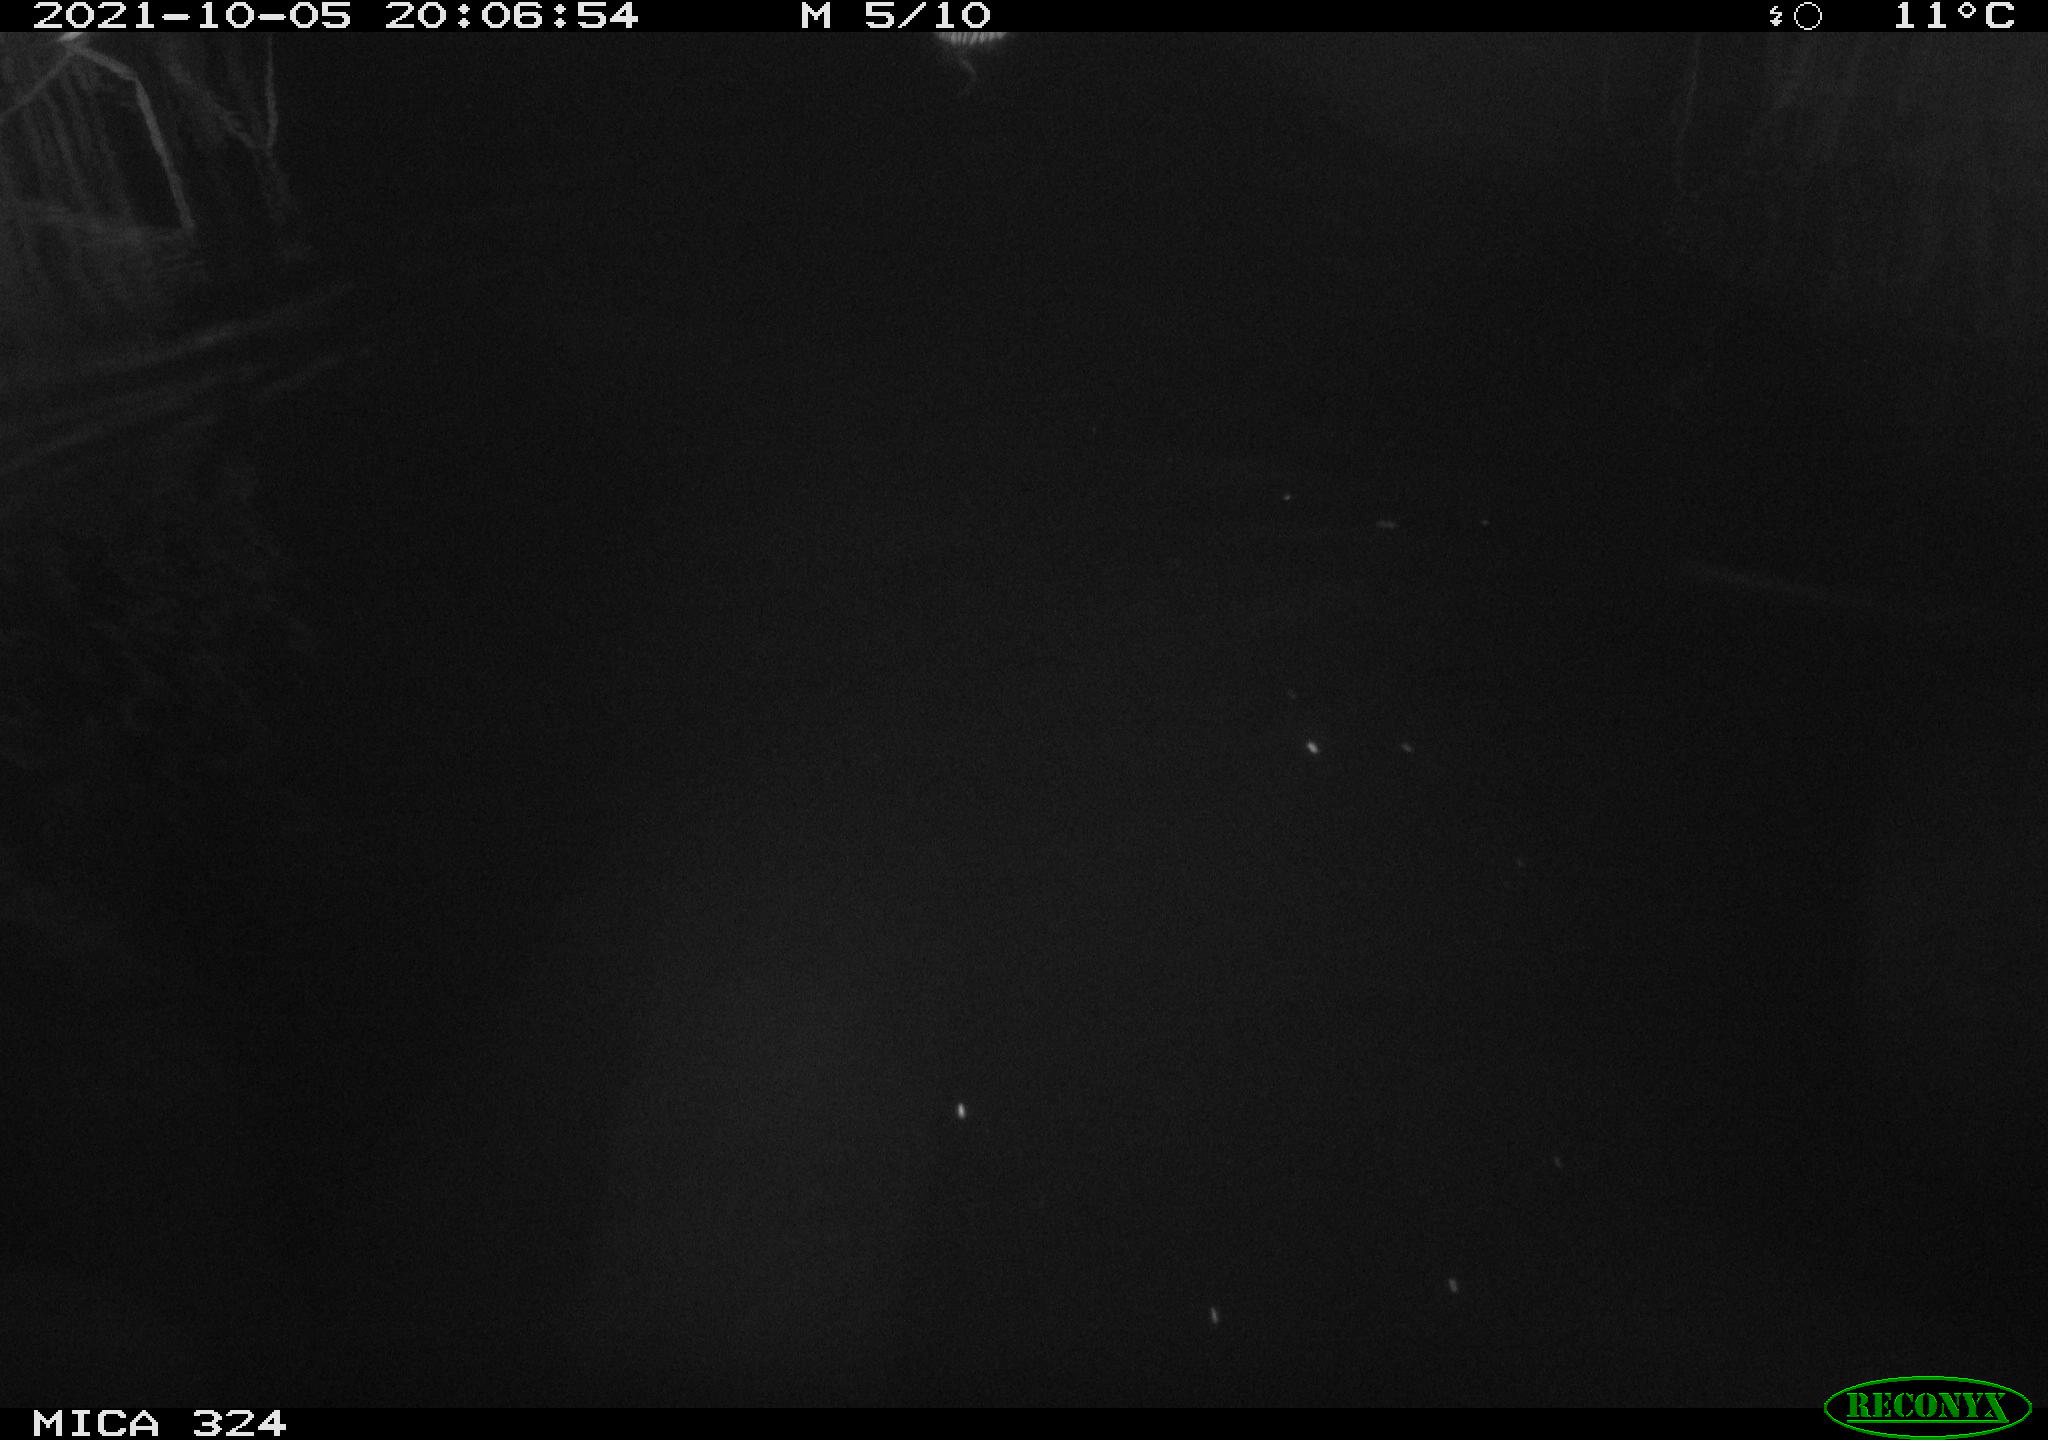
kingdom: Animalia
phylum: Chordata
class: Mammalia
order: Rodentia
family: Cricetidae
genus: Ondatra
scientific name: Ondatra zibethicus
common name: Muskrat
